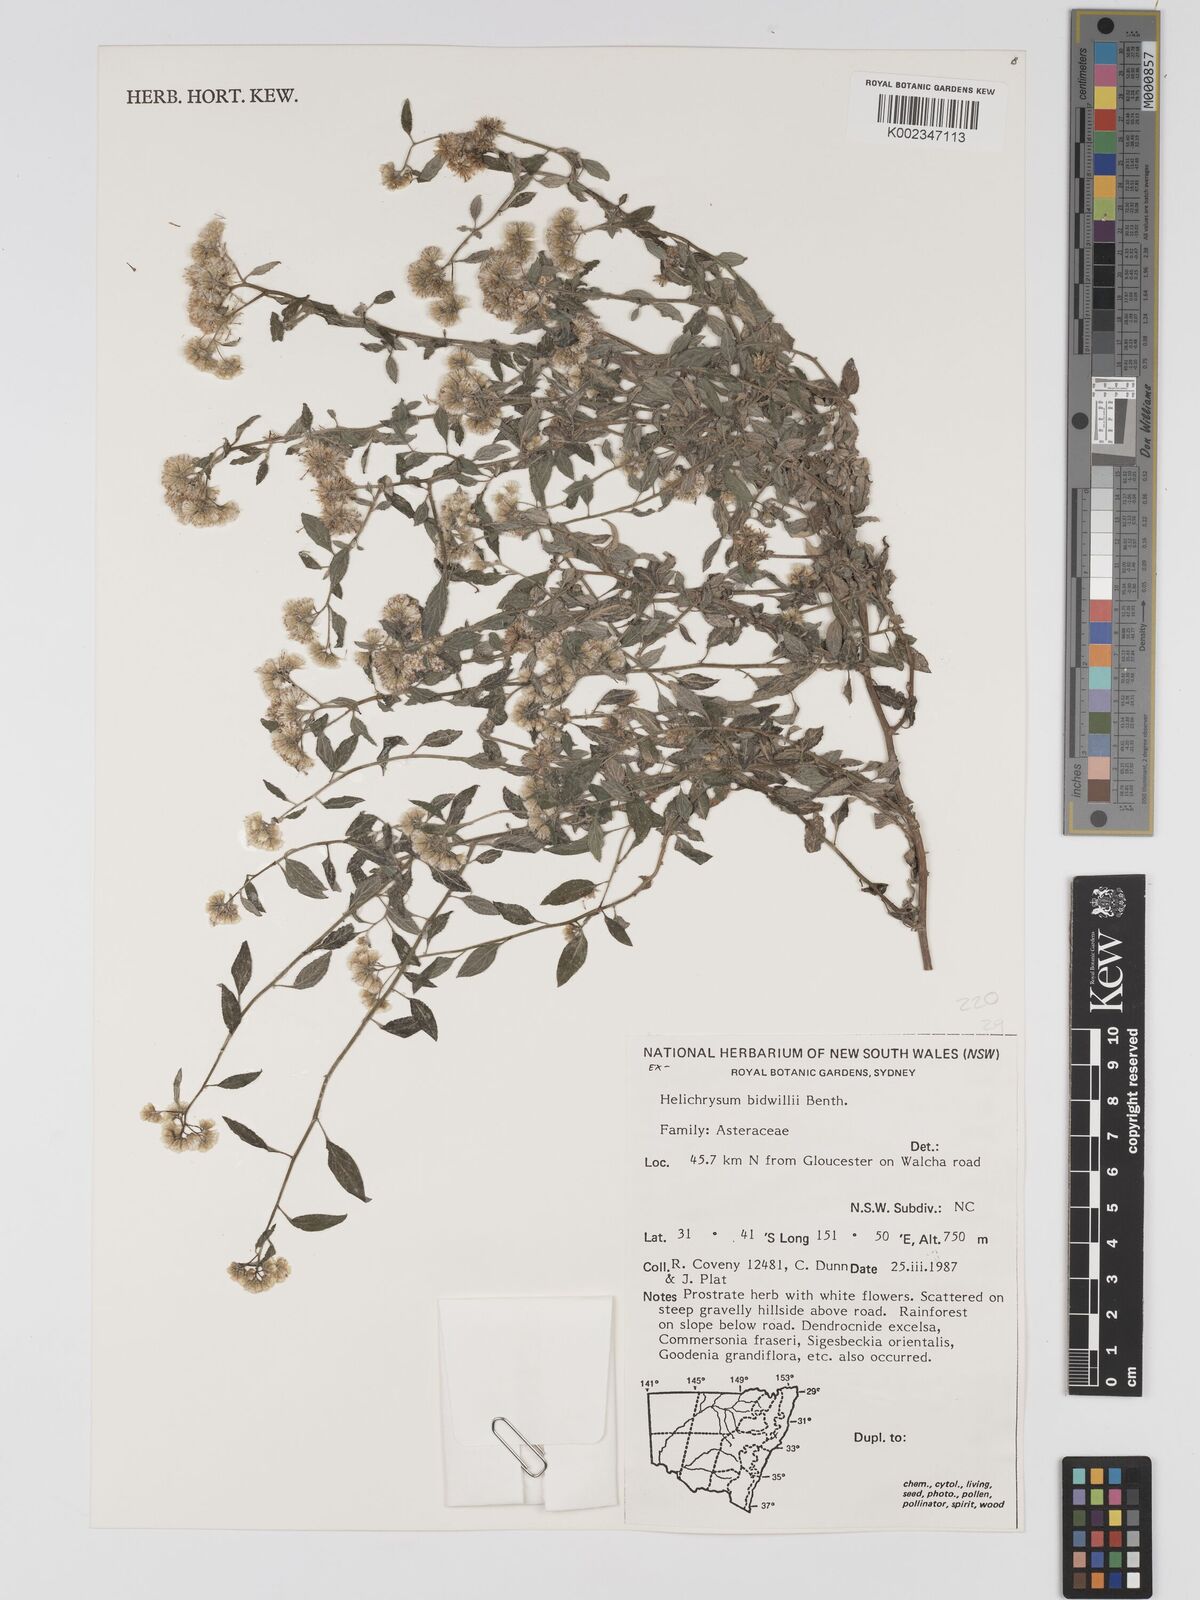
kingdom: Plantae
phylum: Tracheophyta
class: Magnoliopsida
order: Asterales
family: Asteraceae
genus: Ozothamnus
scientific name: Ozothamnus bidwillii
